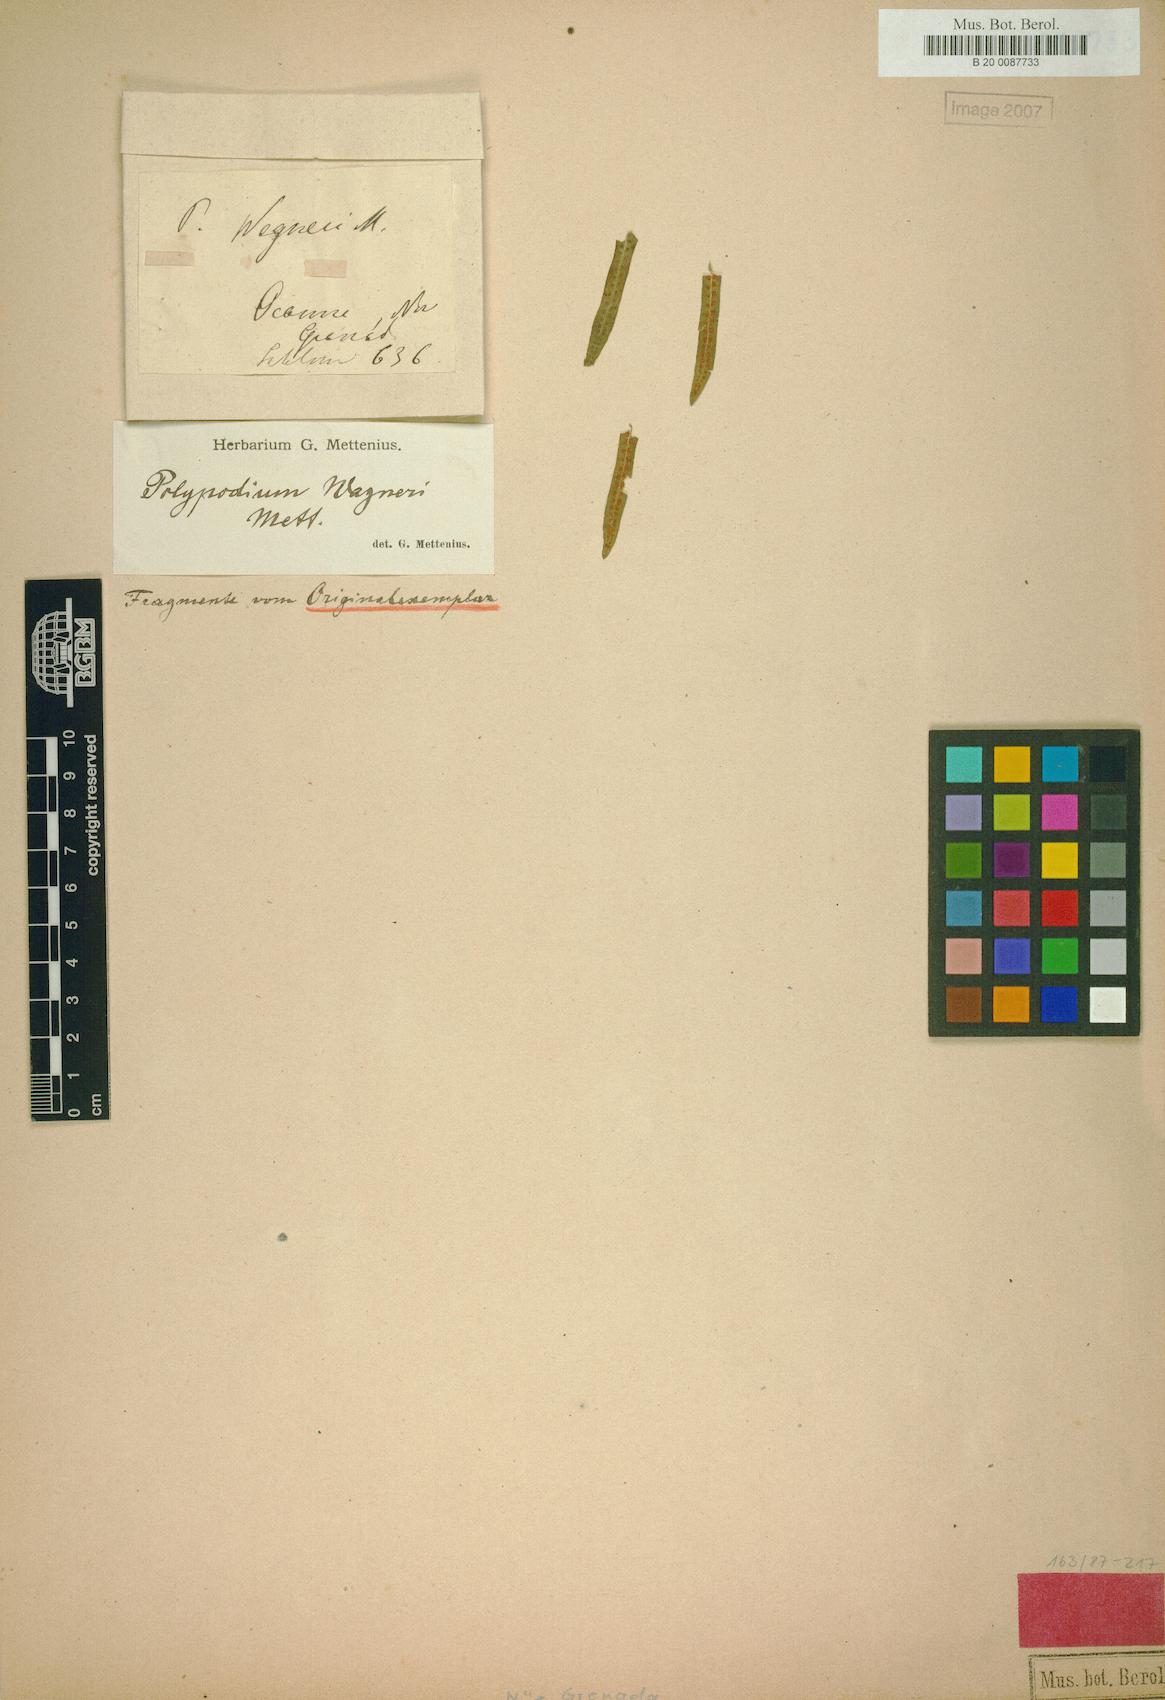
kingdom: Plantae
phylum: Tracheophyta
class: Polypodiopsida
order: Polypodiales
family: Polypodiaceae
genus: Serpocaulon
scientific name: Serpocaulon wagneri
